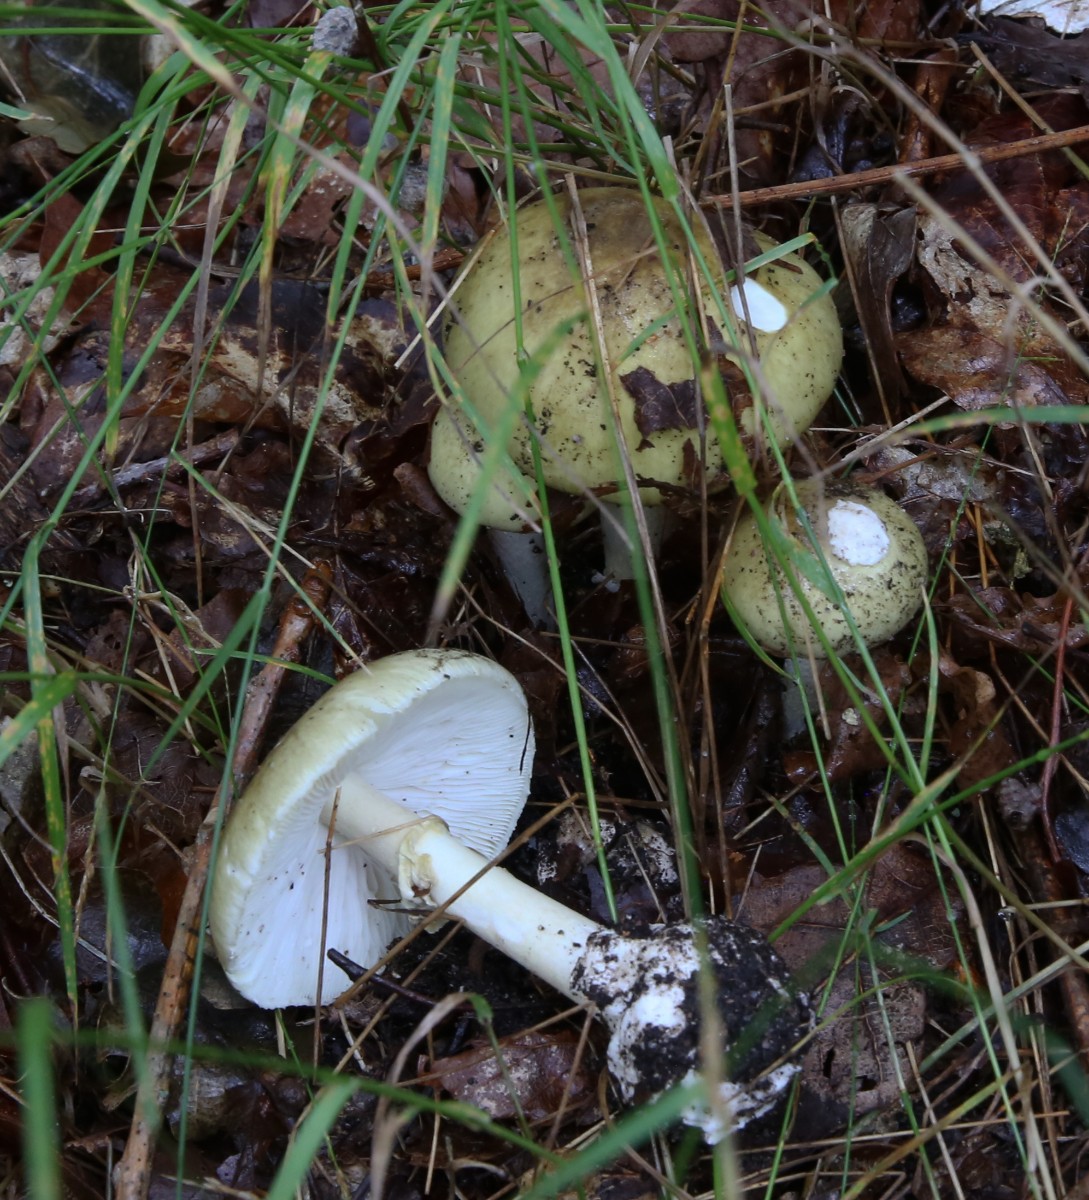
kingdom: Fungi
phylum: Basidiomycota
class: Agaricomycetes
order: Agaricales
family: Amanitaceae
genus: Amanita
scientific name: Amanita phalloides
